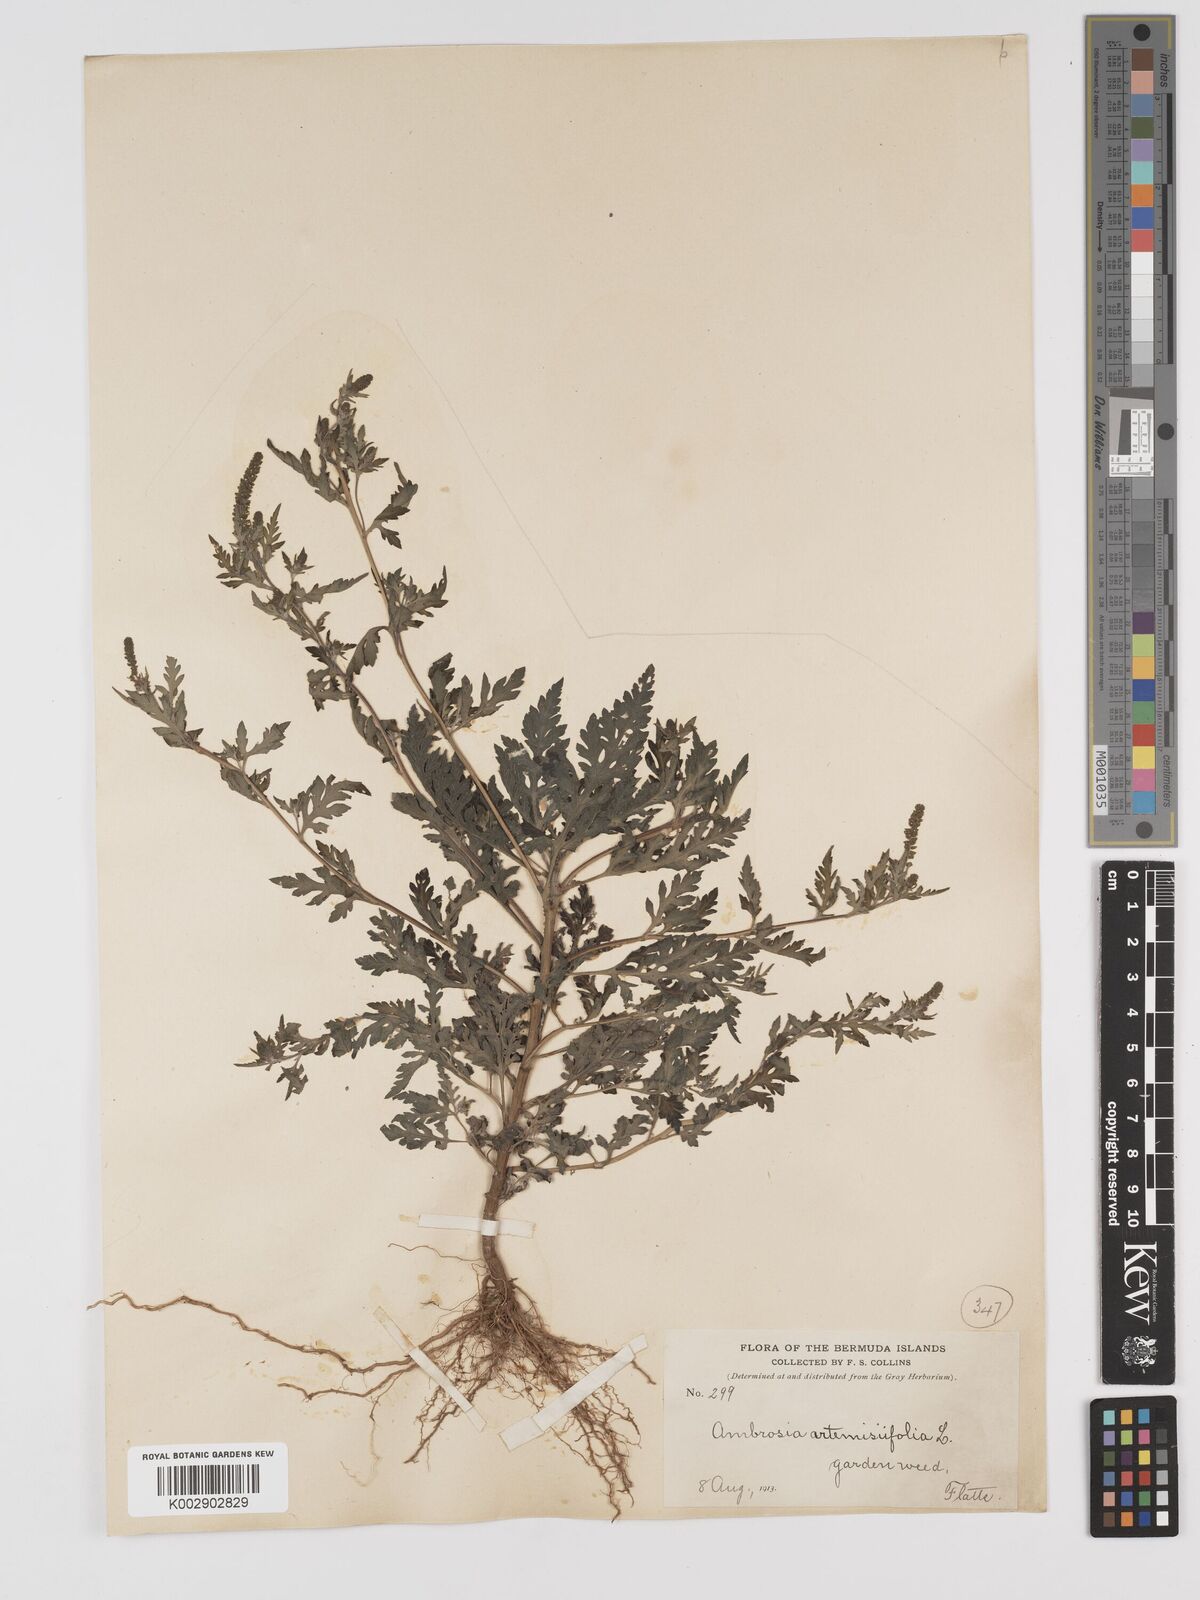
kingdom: Plantae
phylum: Tracheophyta
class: Magnoliopsida
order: Asterales
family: Asteraceae
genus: Ambrosia
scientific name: Ambrosia artemisiifolia
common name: Annual ragweed
